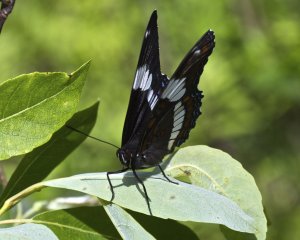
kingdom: Animalia
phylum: Arthropoda
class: Insecta
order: Lepidoptera
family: Nymphalidae
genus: Limenitis
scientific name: Limenitis arthemis
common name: Red-spotted Admiral
